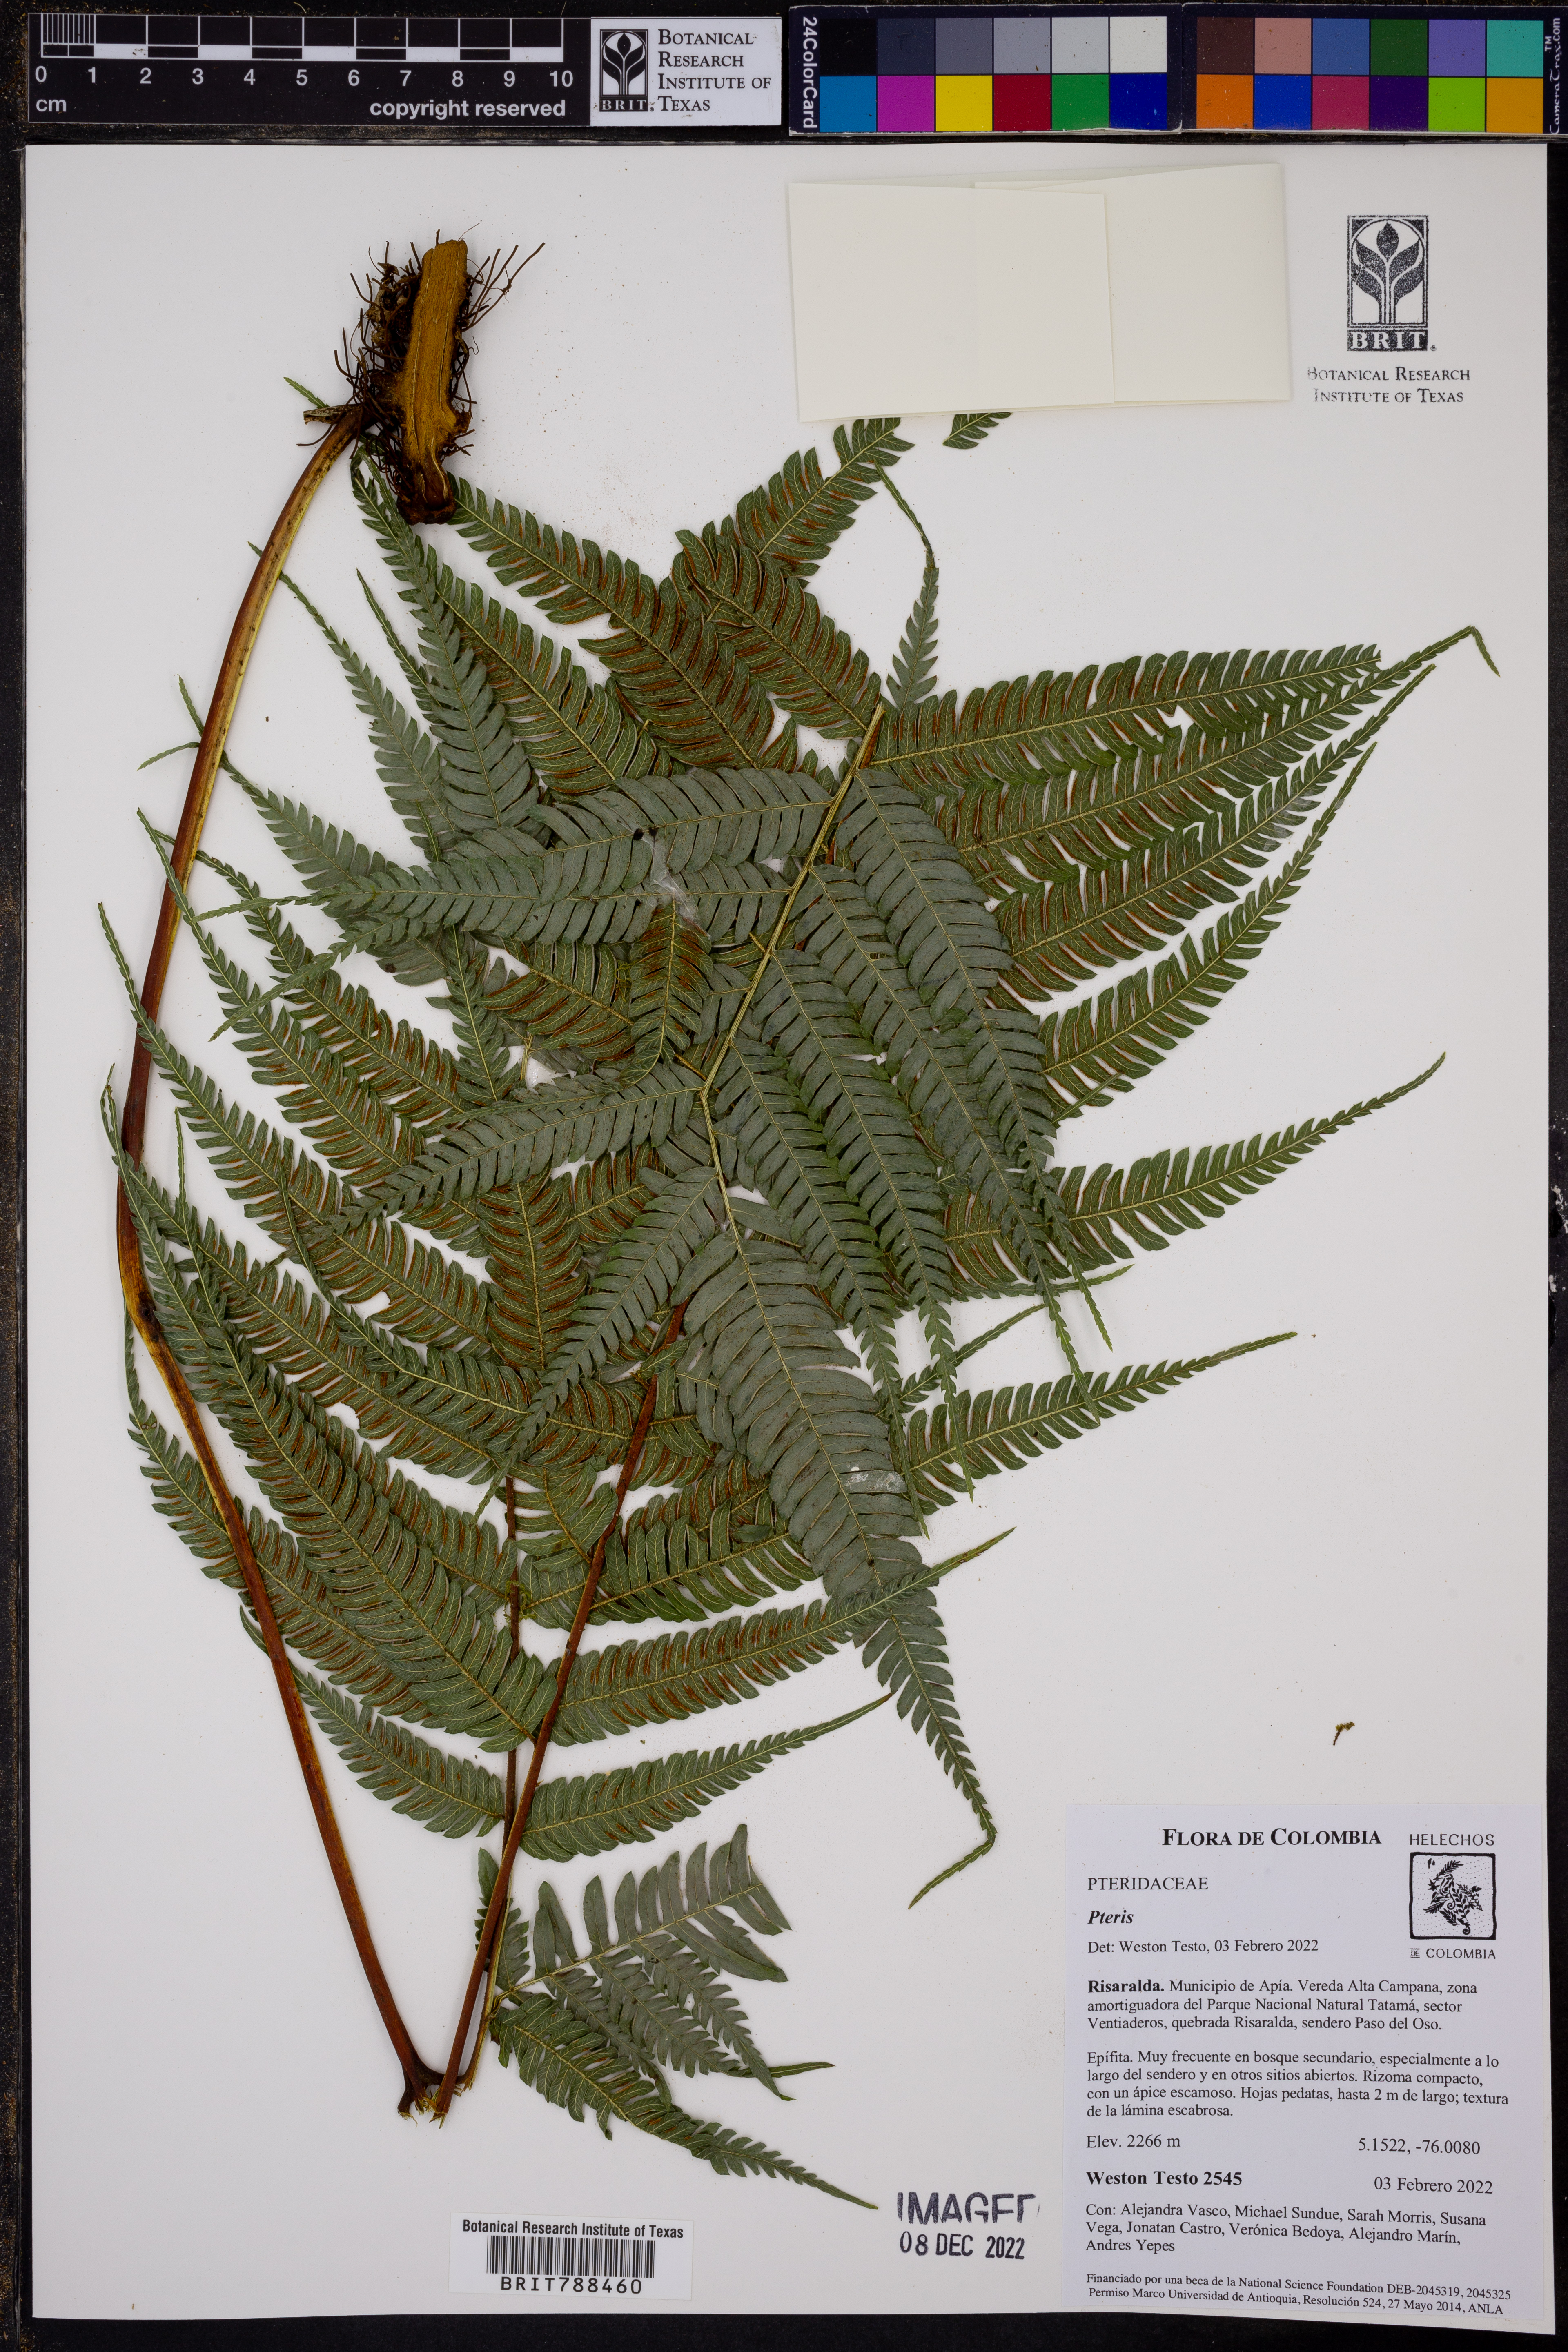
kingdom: Plantae
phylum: Tracheophyta
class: Polypodiopsida
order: Polypodiales
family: Pteridaceae
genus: Pteris
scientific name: Pteris
